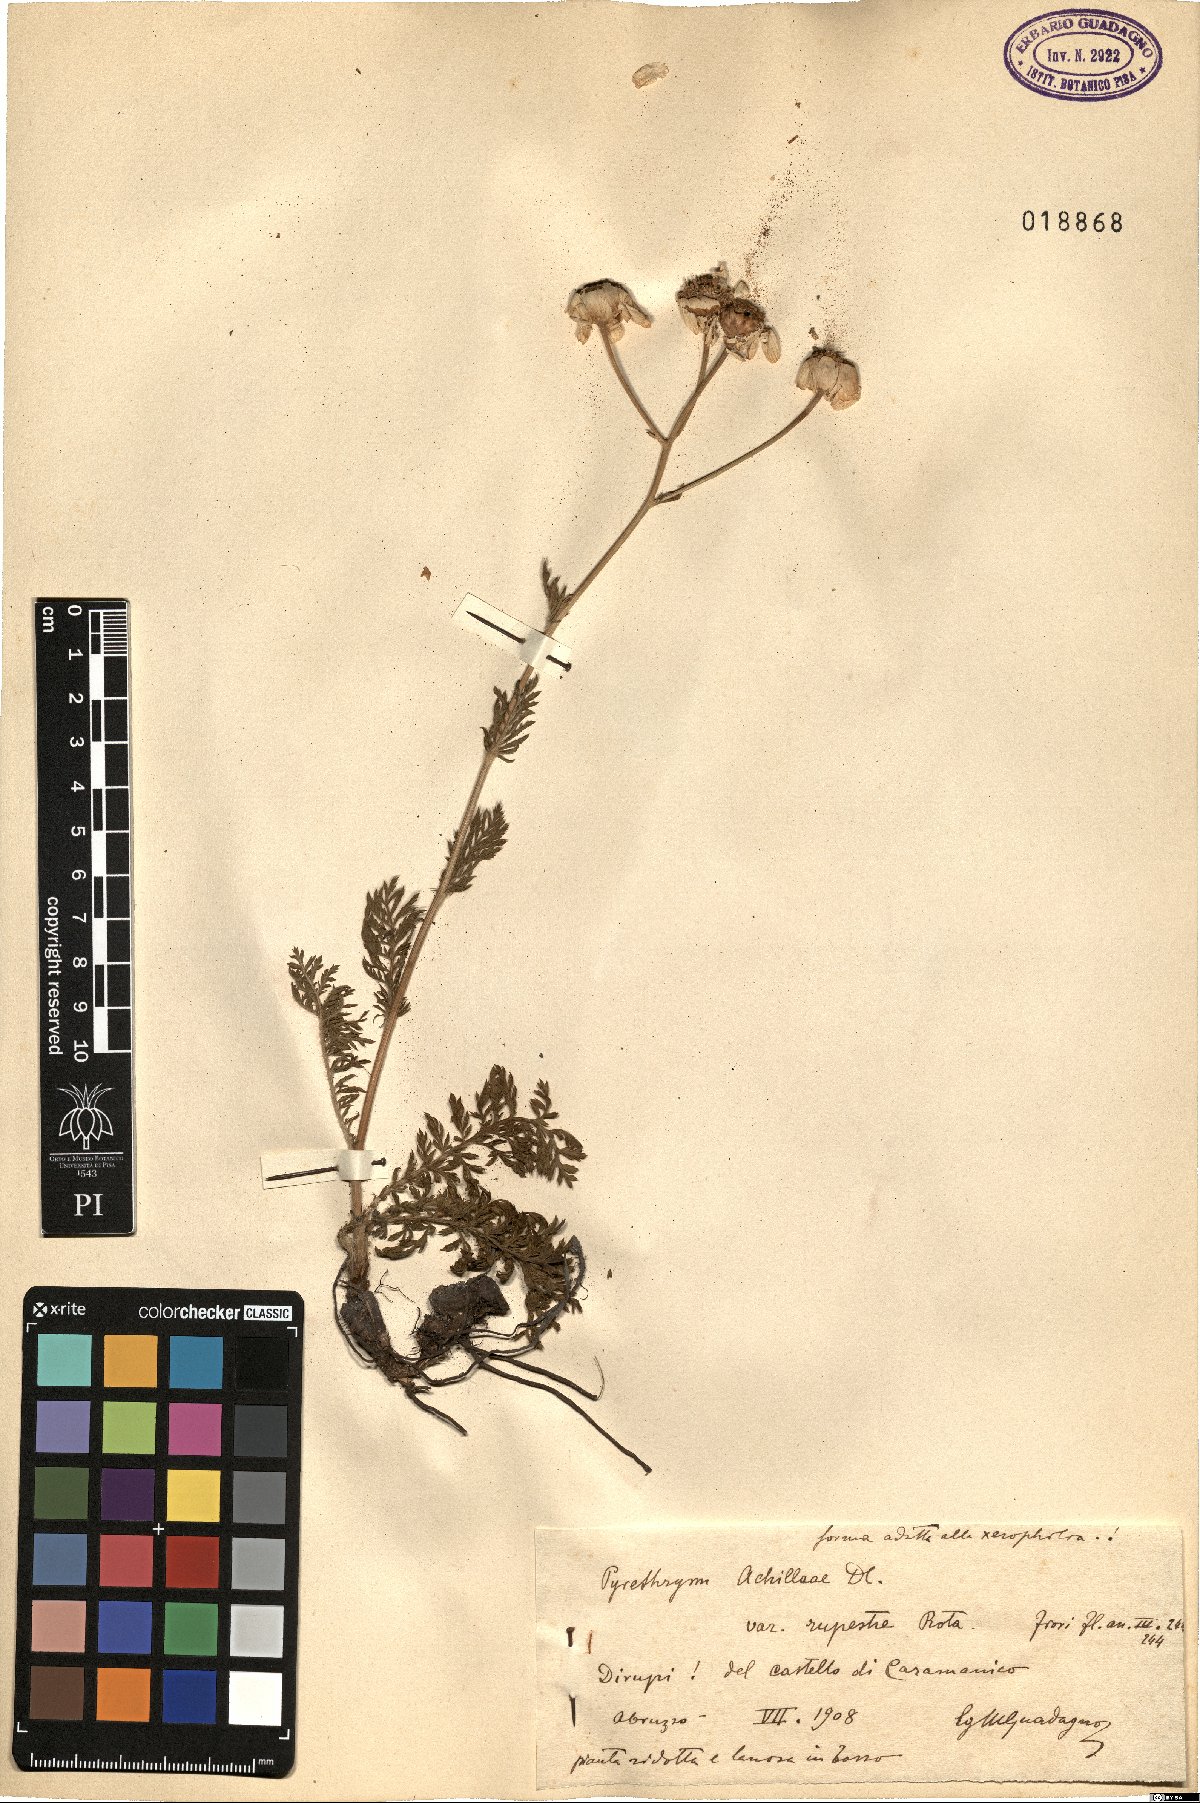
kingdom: Plantae
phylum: Tracheophyta
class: Magnoliopsida
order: Asterales
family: Asteraceae
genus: Tanacetum
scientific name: Tanacetum corymbosum
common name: Scentless feverfew
